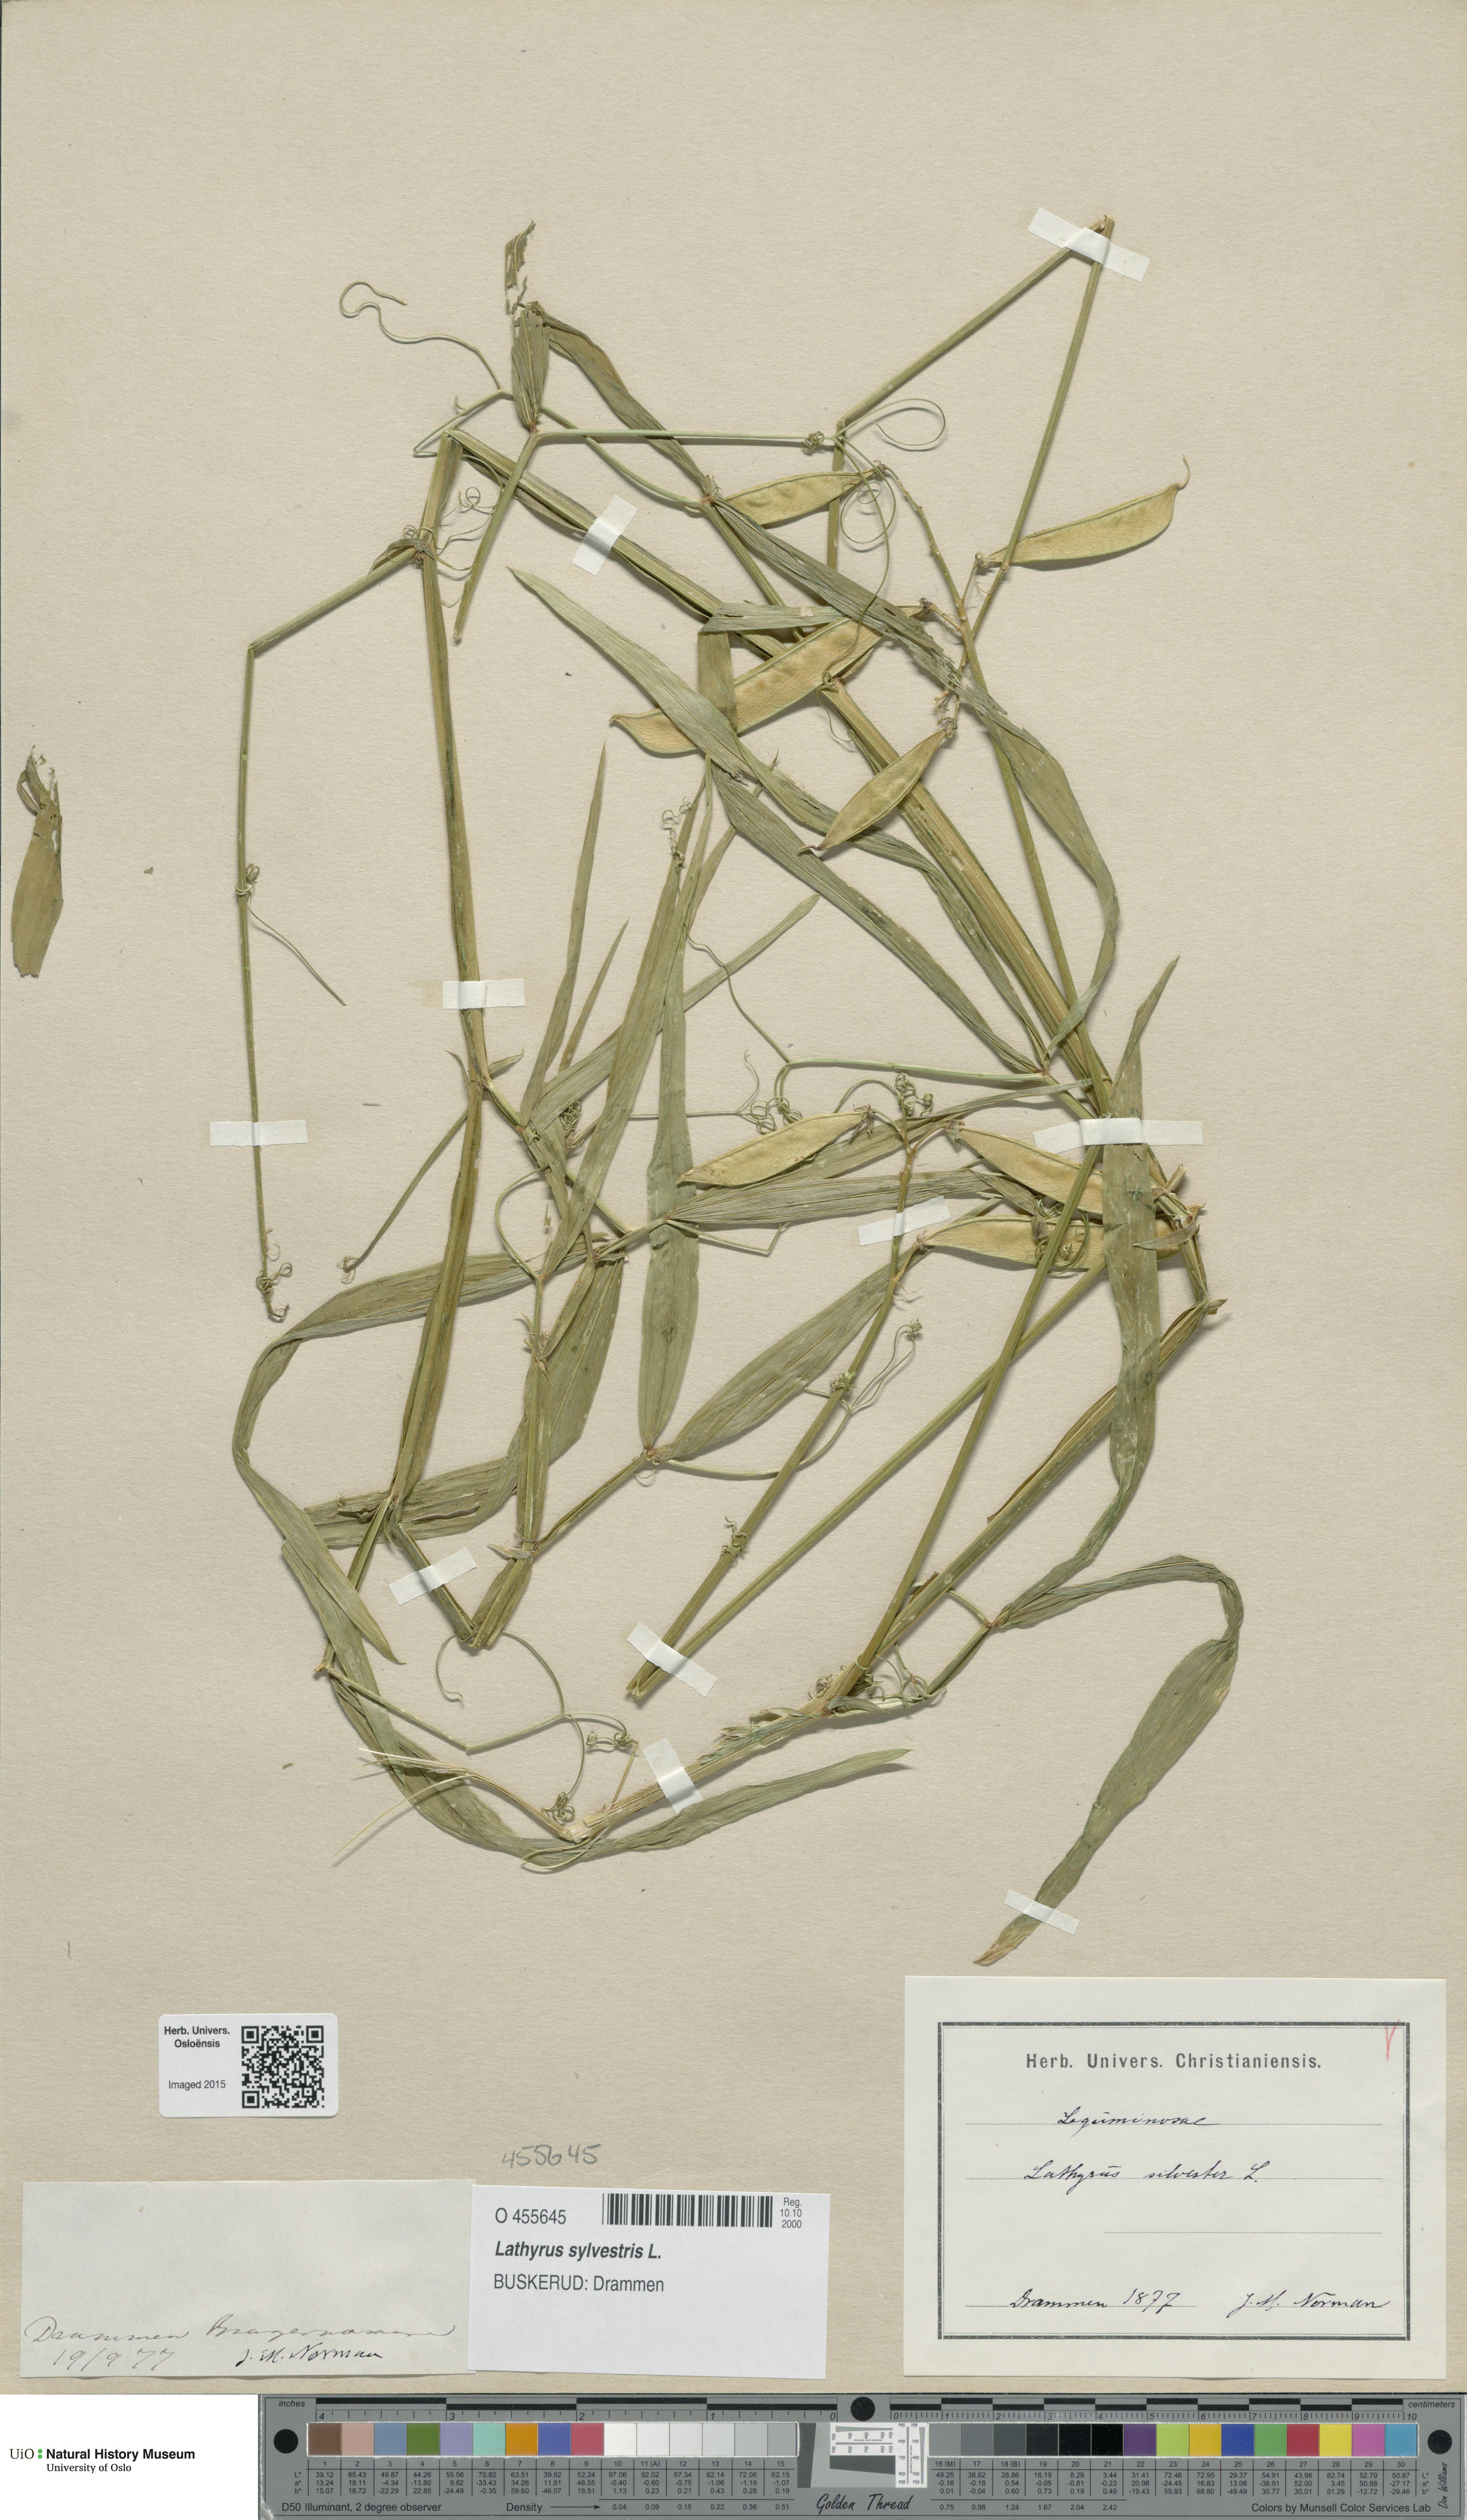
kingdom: Plantae
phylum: Tracheophyta
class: Magnoliopsida
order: Fabales
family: Fabaceae
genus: Lathyrus
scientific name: Lathyrus sylvestris
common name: Flat pea
